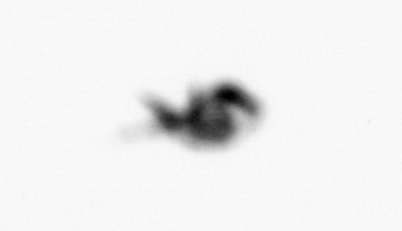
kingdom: Animalia
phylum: Arthropoda
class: Copepoda
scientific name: Copepoda
